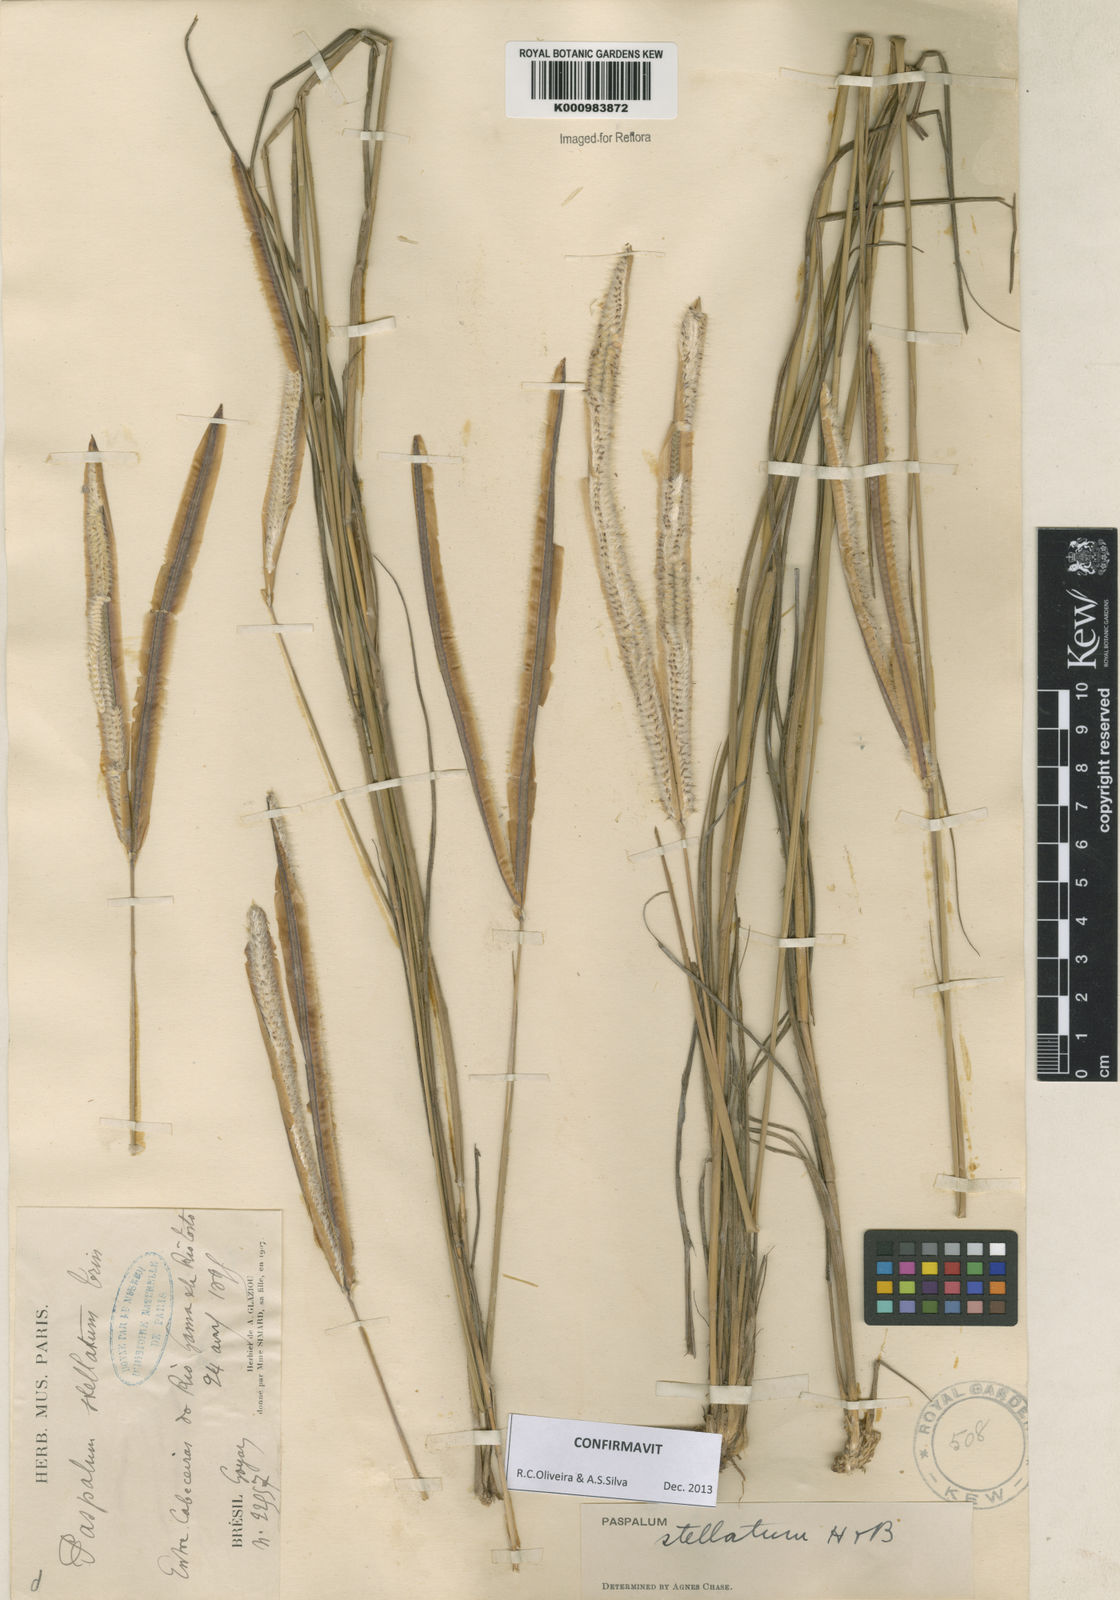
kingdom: Plantae
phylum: Tracheophyta
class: Liliopsida
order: Poales
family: Poaceae
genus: Paspalum
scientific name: Paspalum
